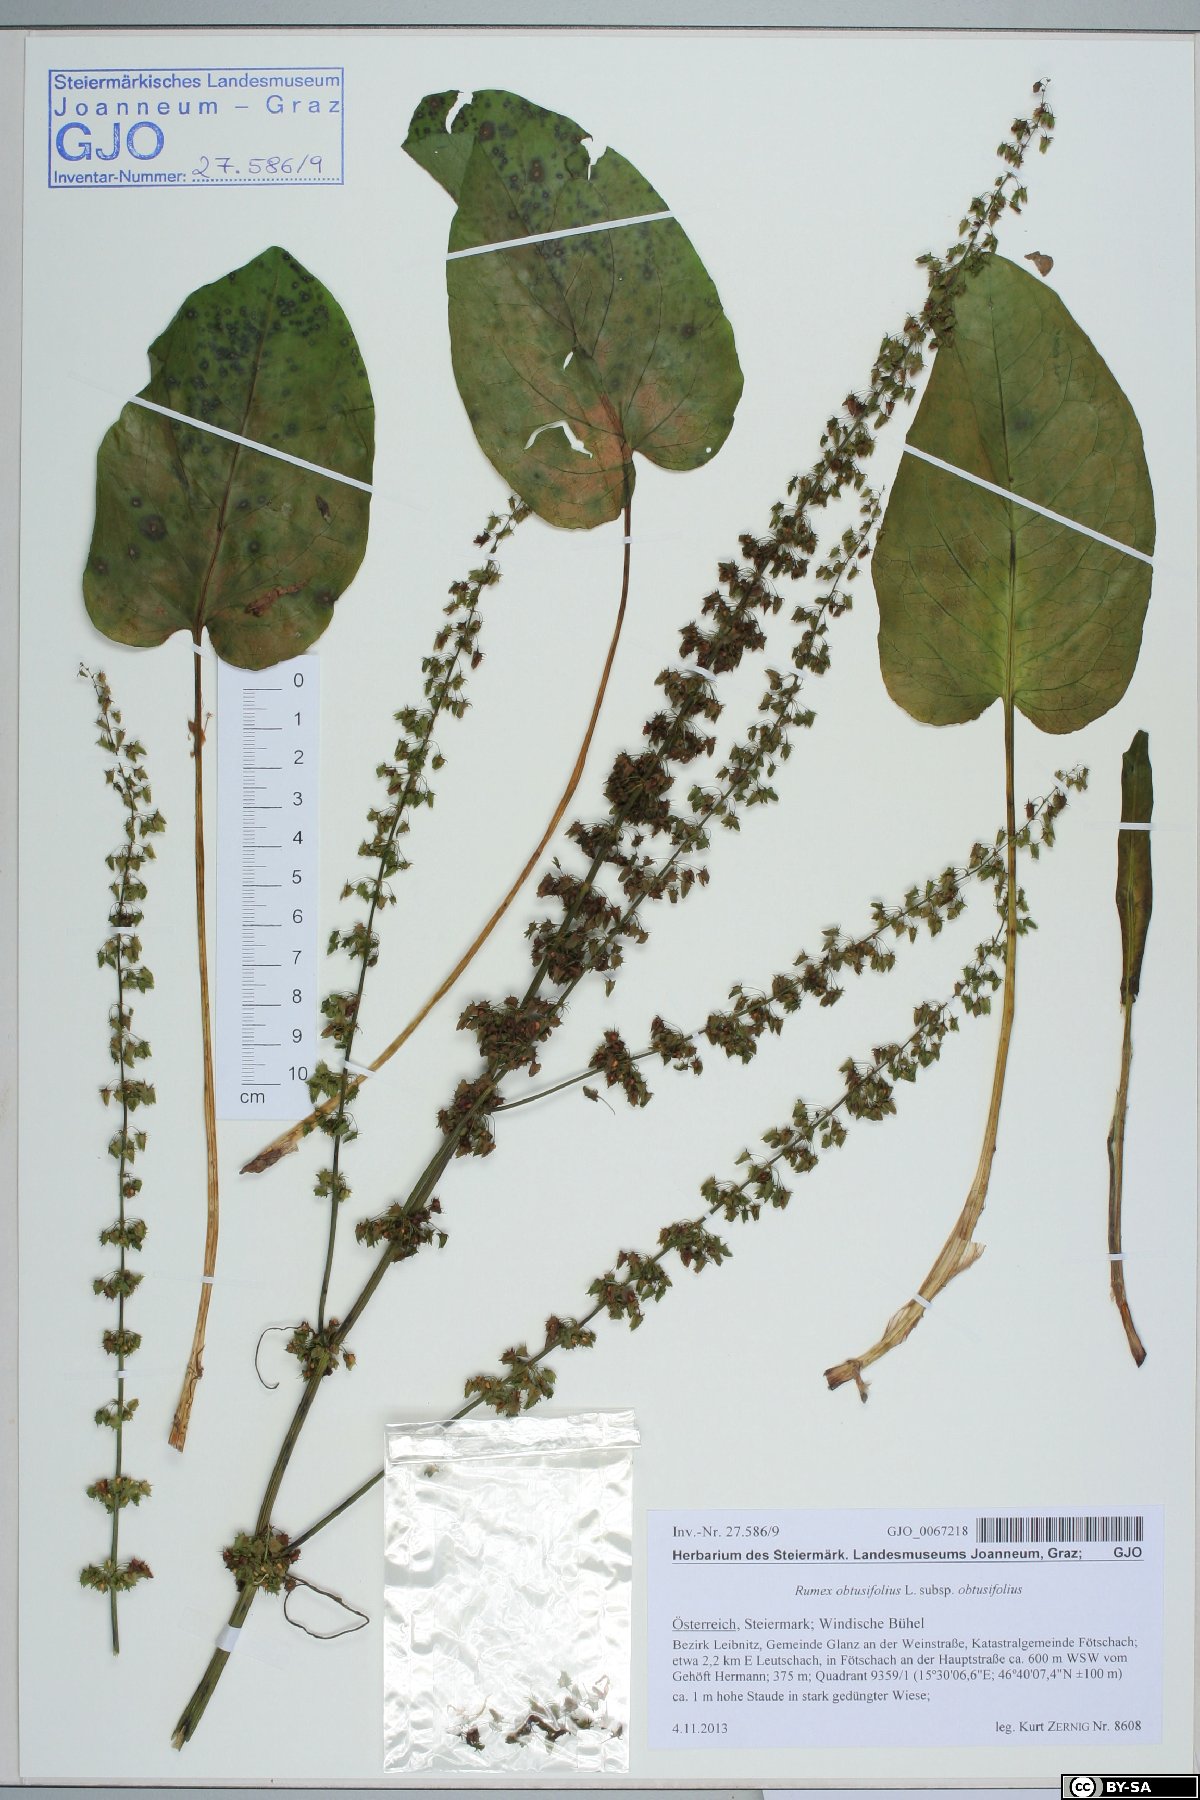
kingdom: Plantae
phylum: Tracheophyta
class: Magnoliopsida
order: Caryophyllales
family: Polygonaceae
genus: Rumex
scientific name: Rumex obtusifolius
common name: Bitter dock
